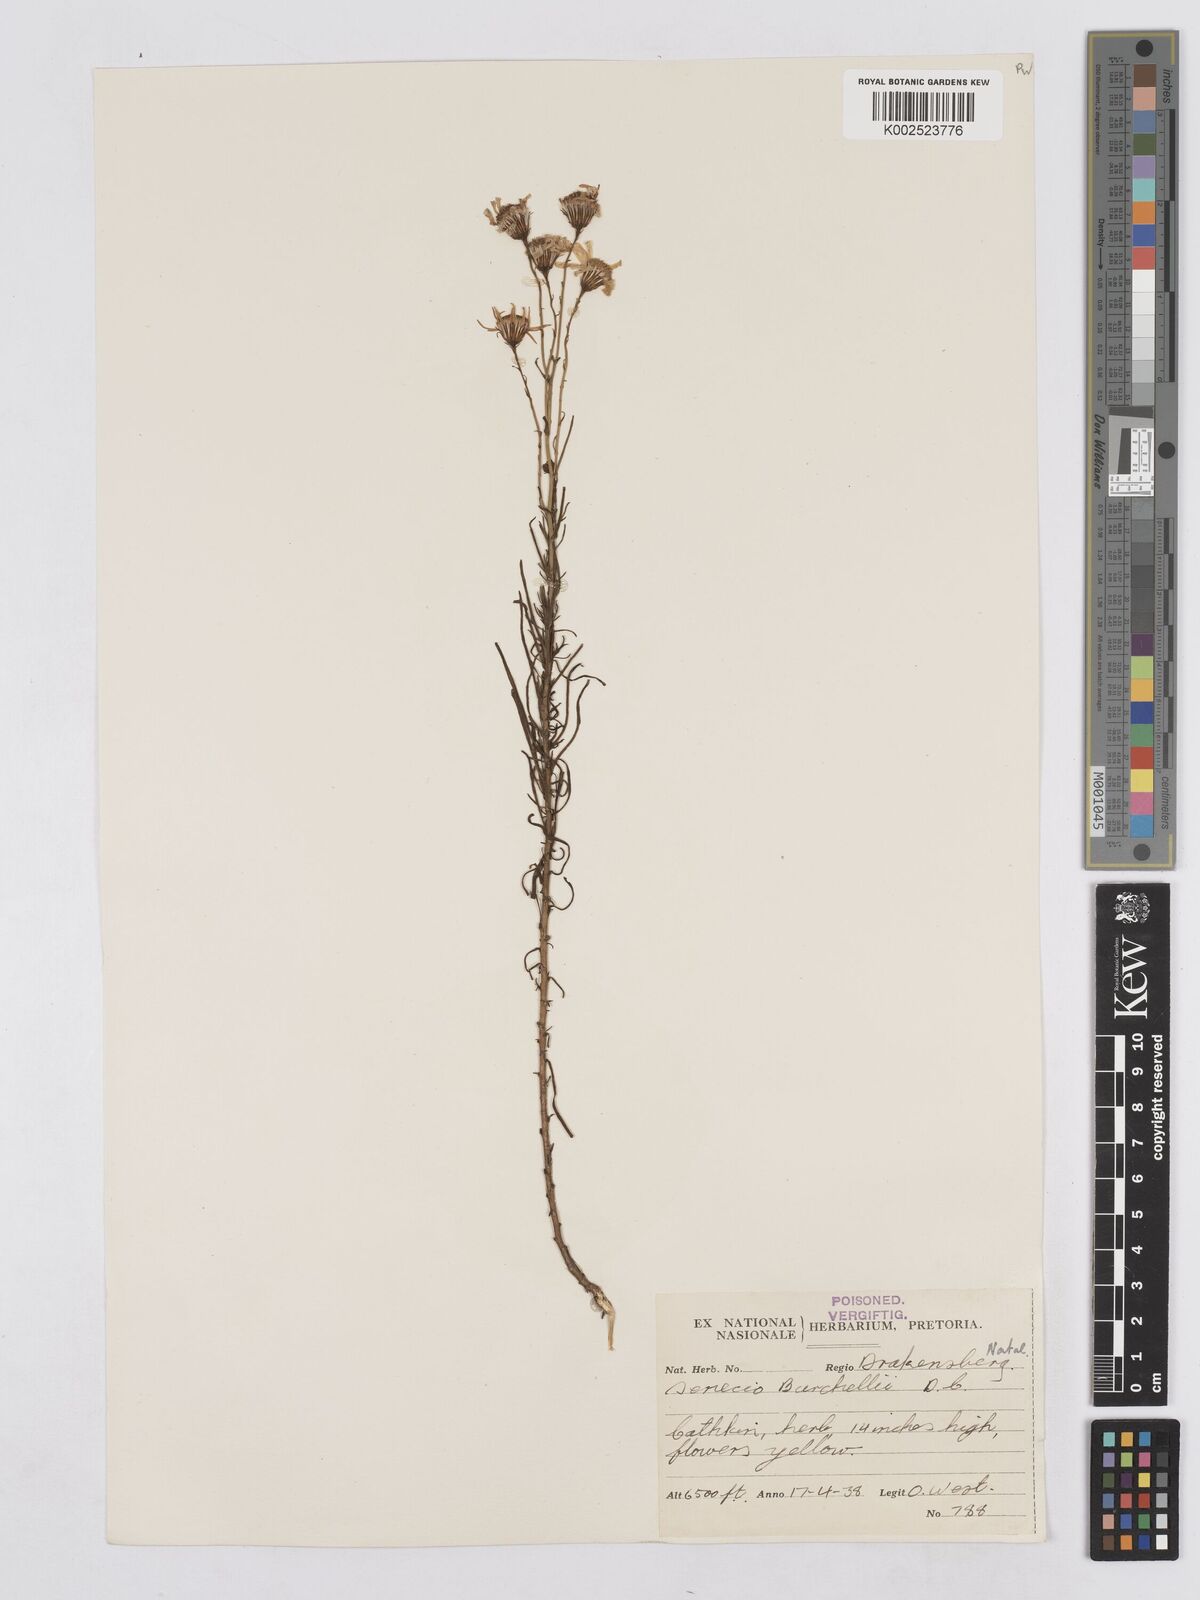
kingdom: Plantae
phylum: Tracheophyta
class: Magnoliopsida
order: Asterales
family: Asteraceae
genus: Senecio
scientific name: Senecio harveyanus
